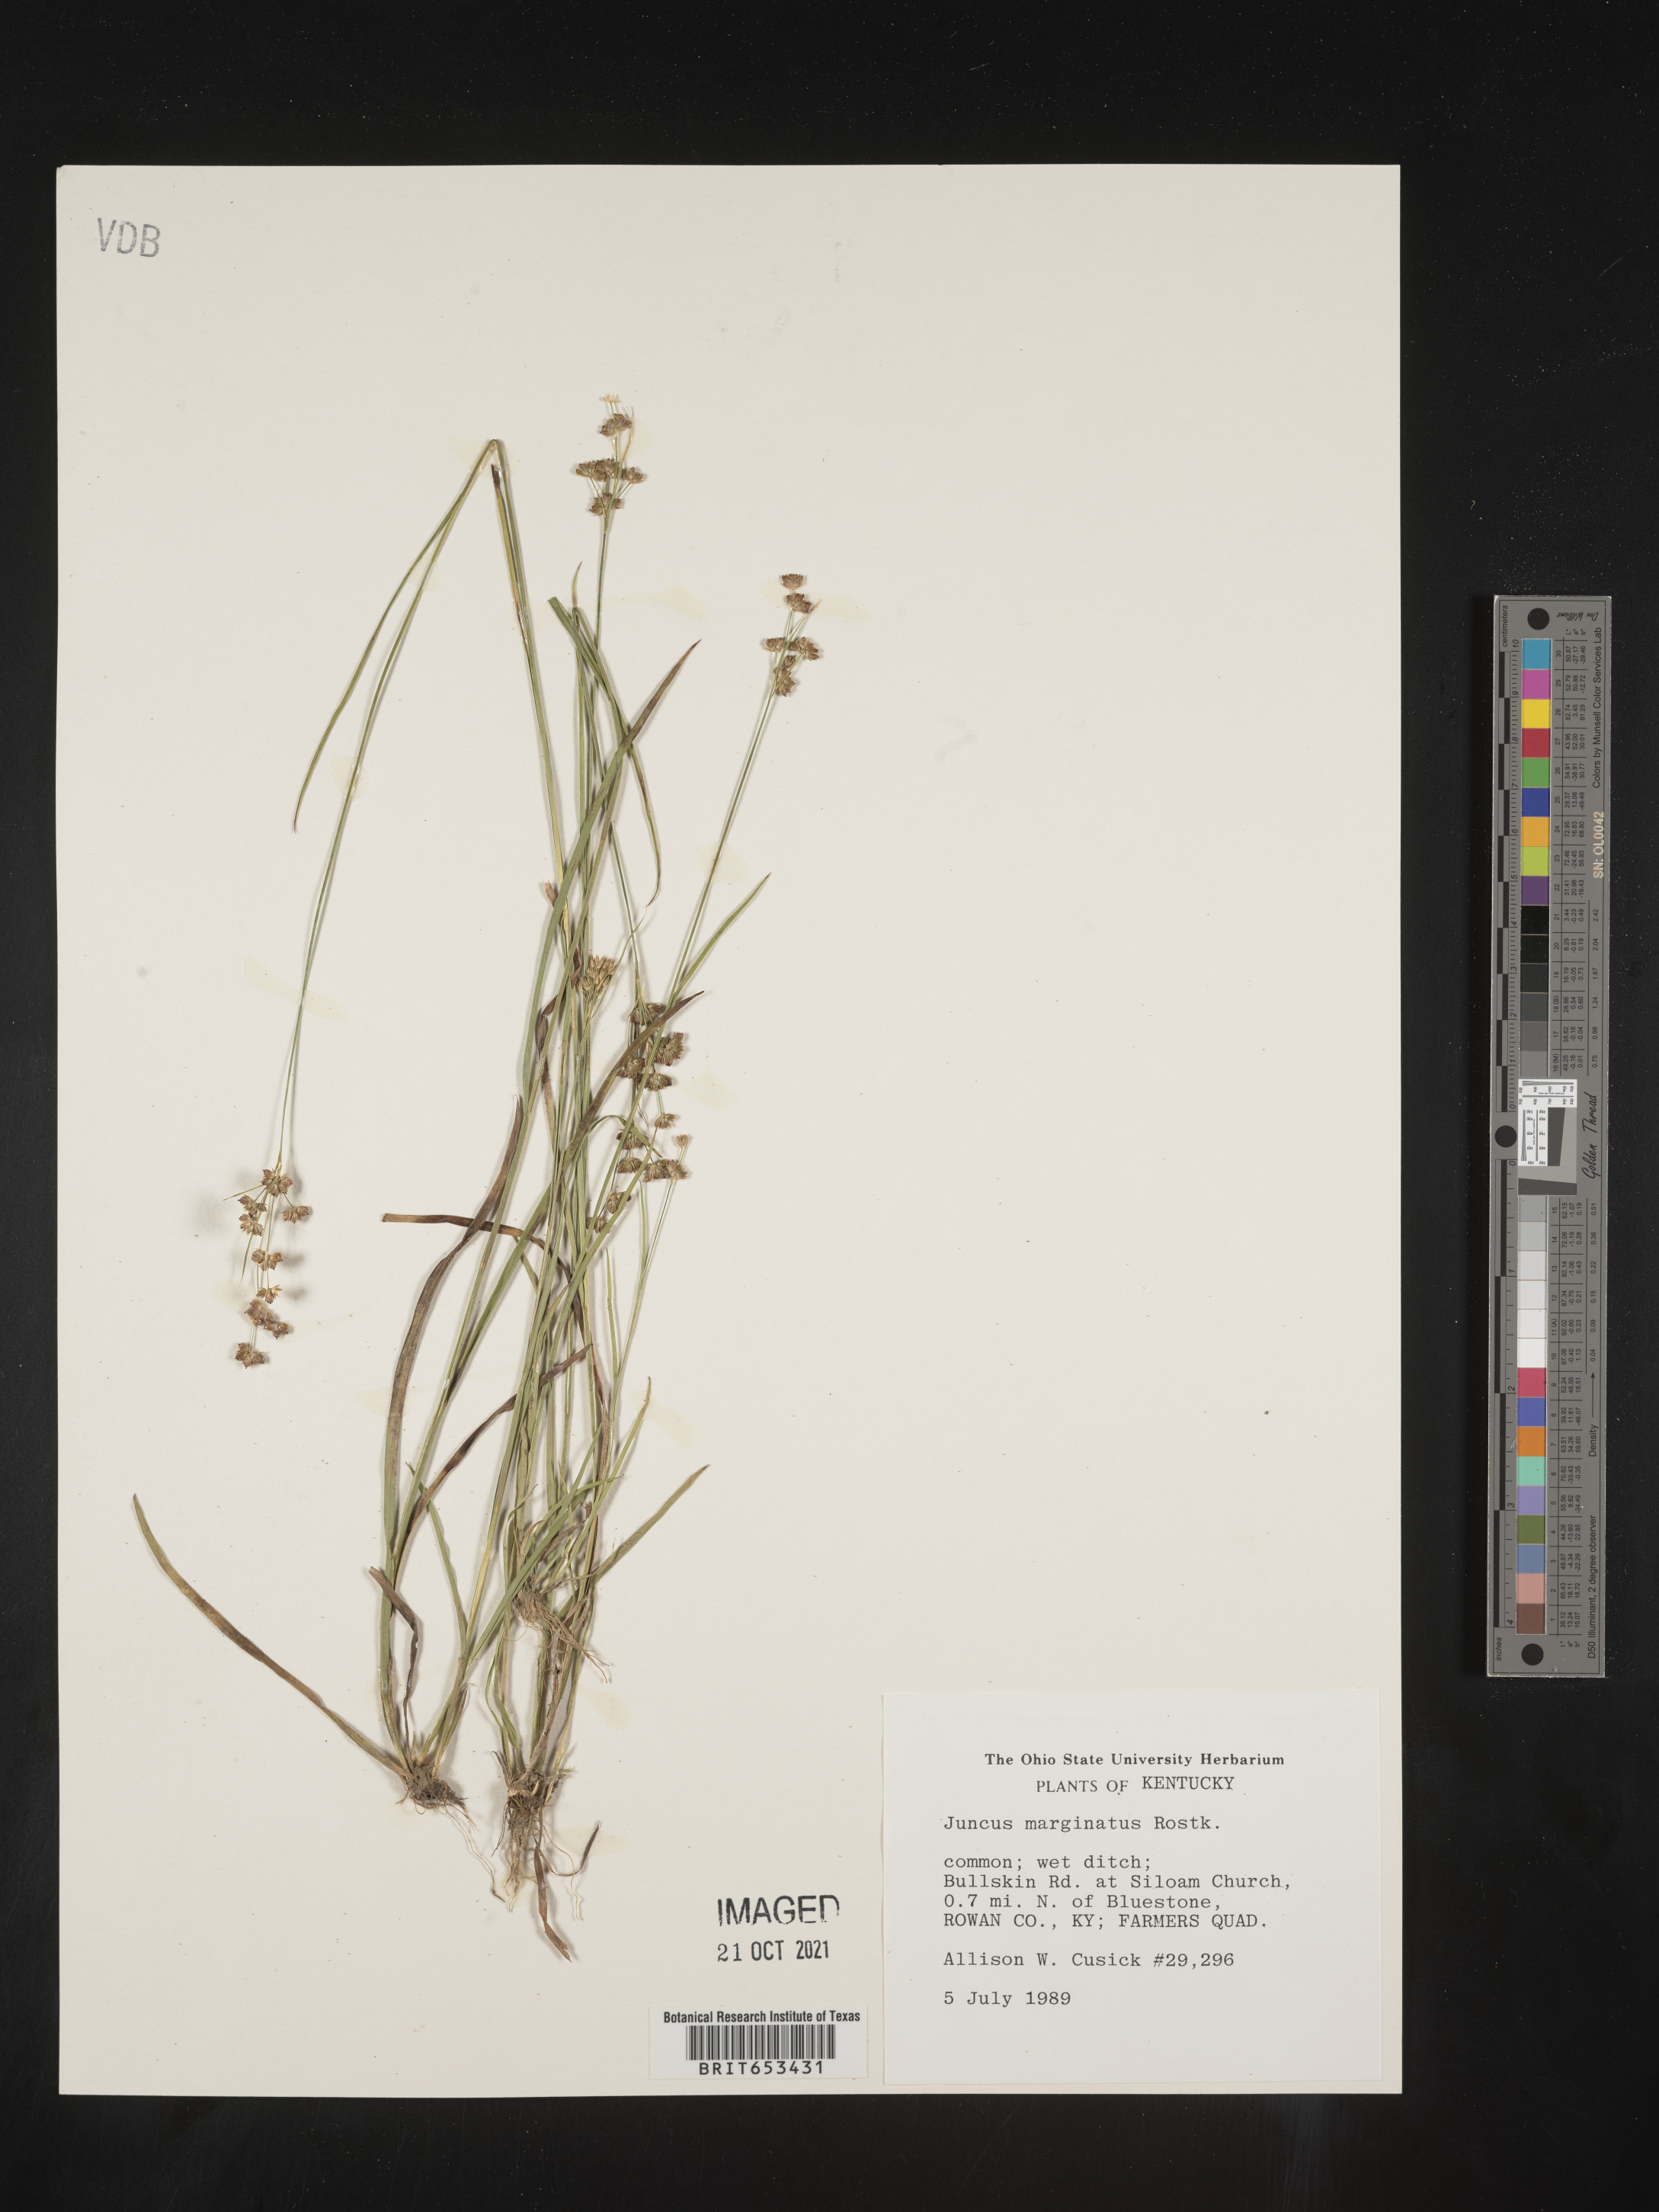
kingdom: Plantae
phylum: Tracheophyta
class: Liliopsida
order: Poales
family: Juncaceae
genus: Juncus
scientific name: Juncus marginatus
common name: Grass-leaf rush
